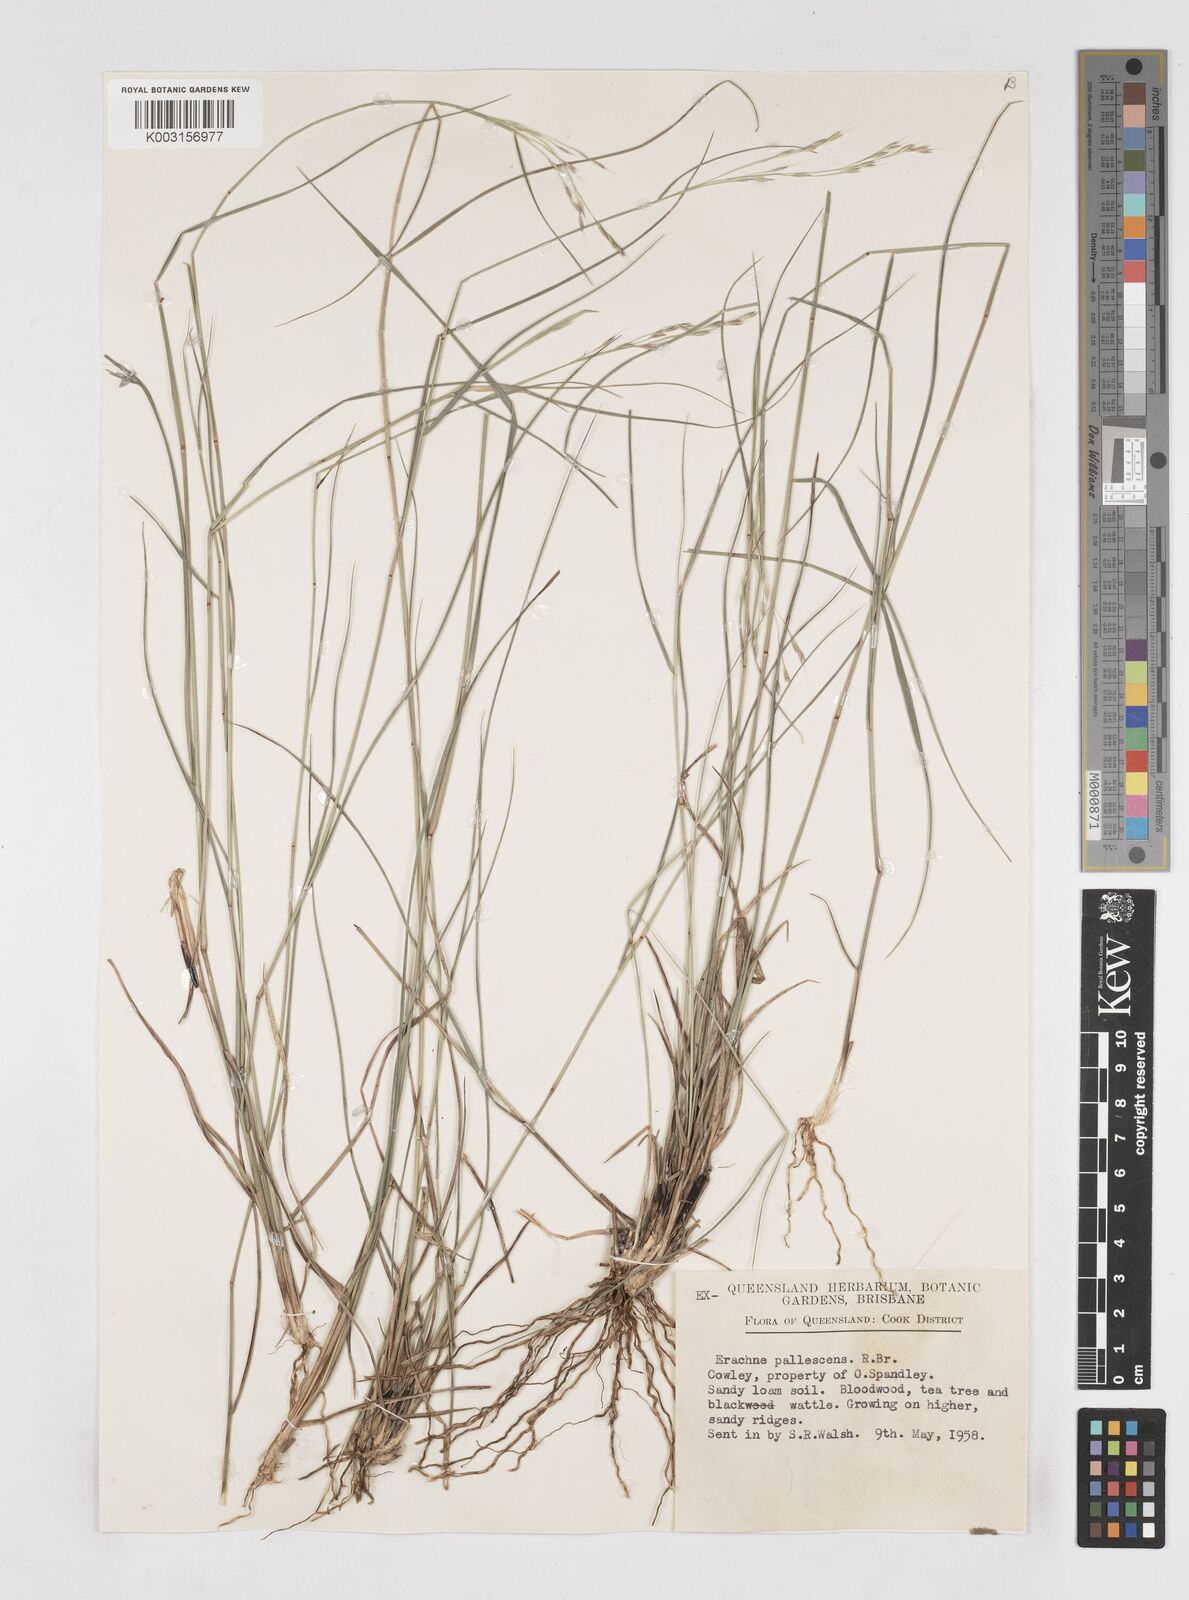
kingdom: Plantae
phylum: Tracheophyta
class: Liliopsida
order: Poales
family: Poaceae
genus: Eriachne
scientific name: Eriachne pallescens
